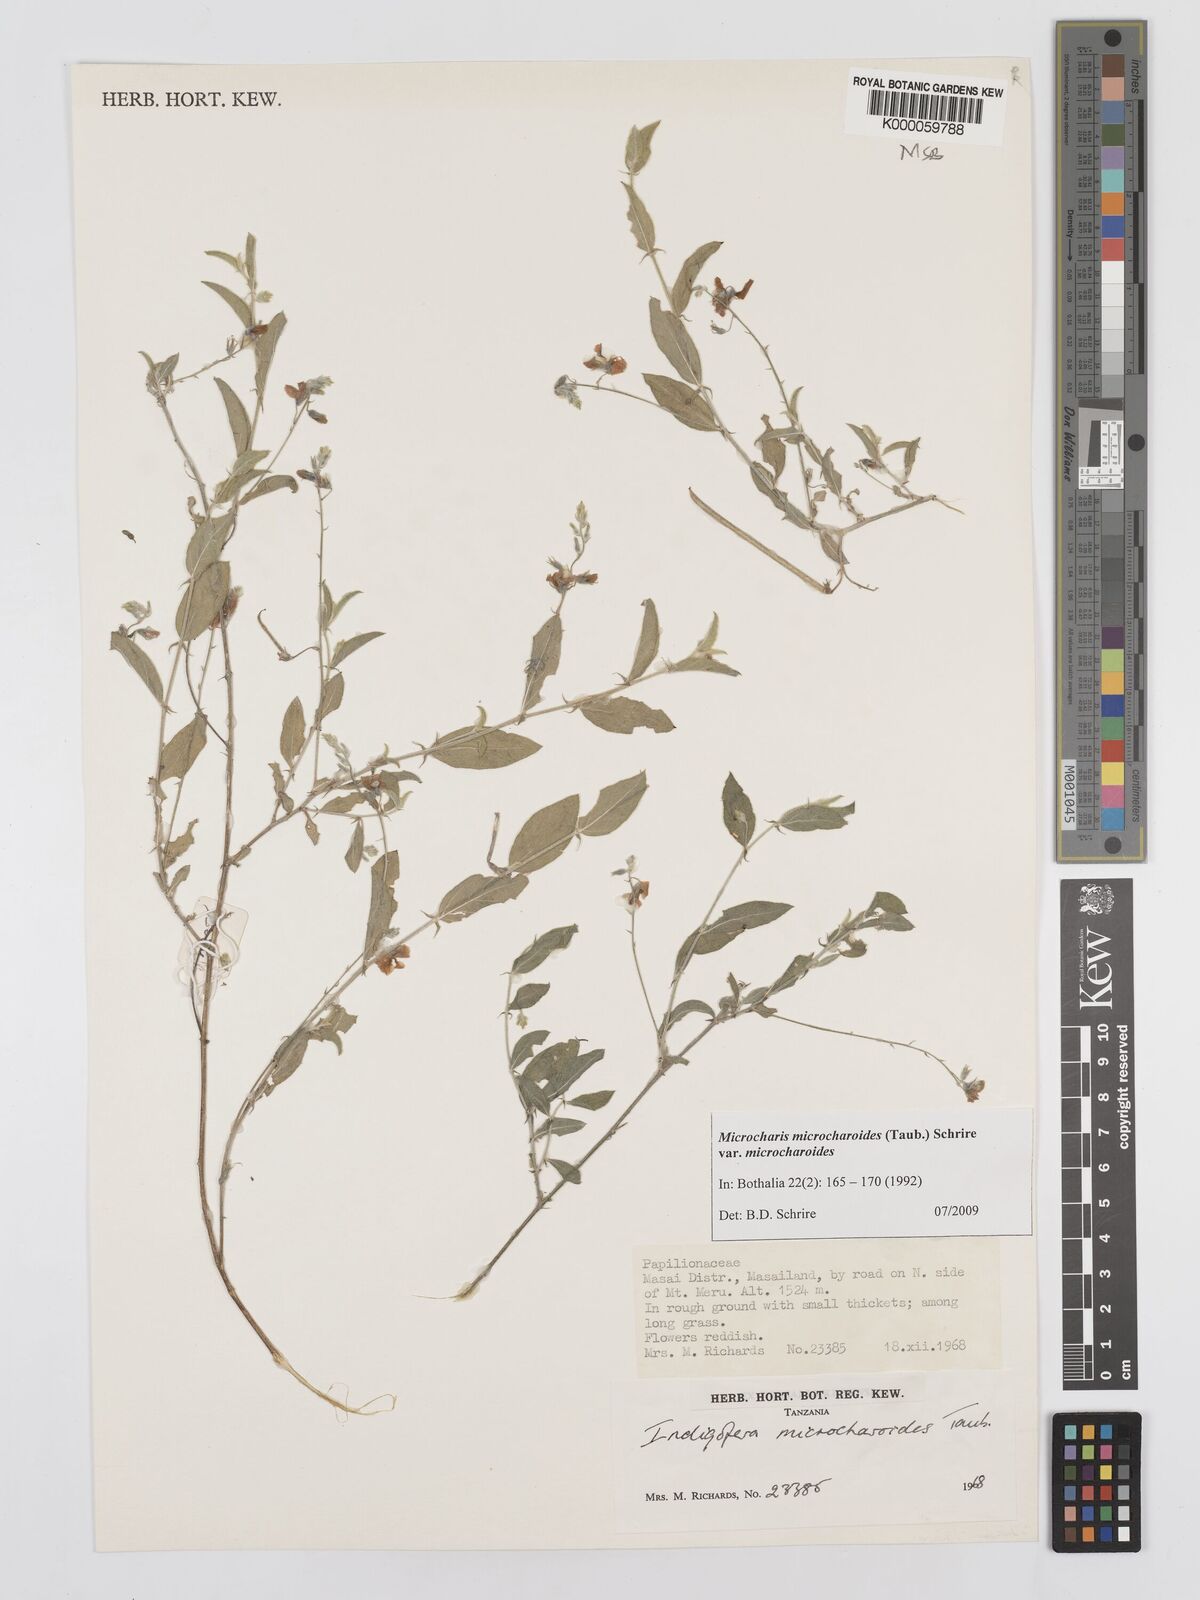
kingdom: Plantae
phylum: Tracheophyta
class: Magnoliopsida
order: Fabales
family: Fabaceae
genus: Microcharis
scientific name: Microcharis microcharoides
